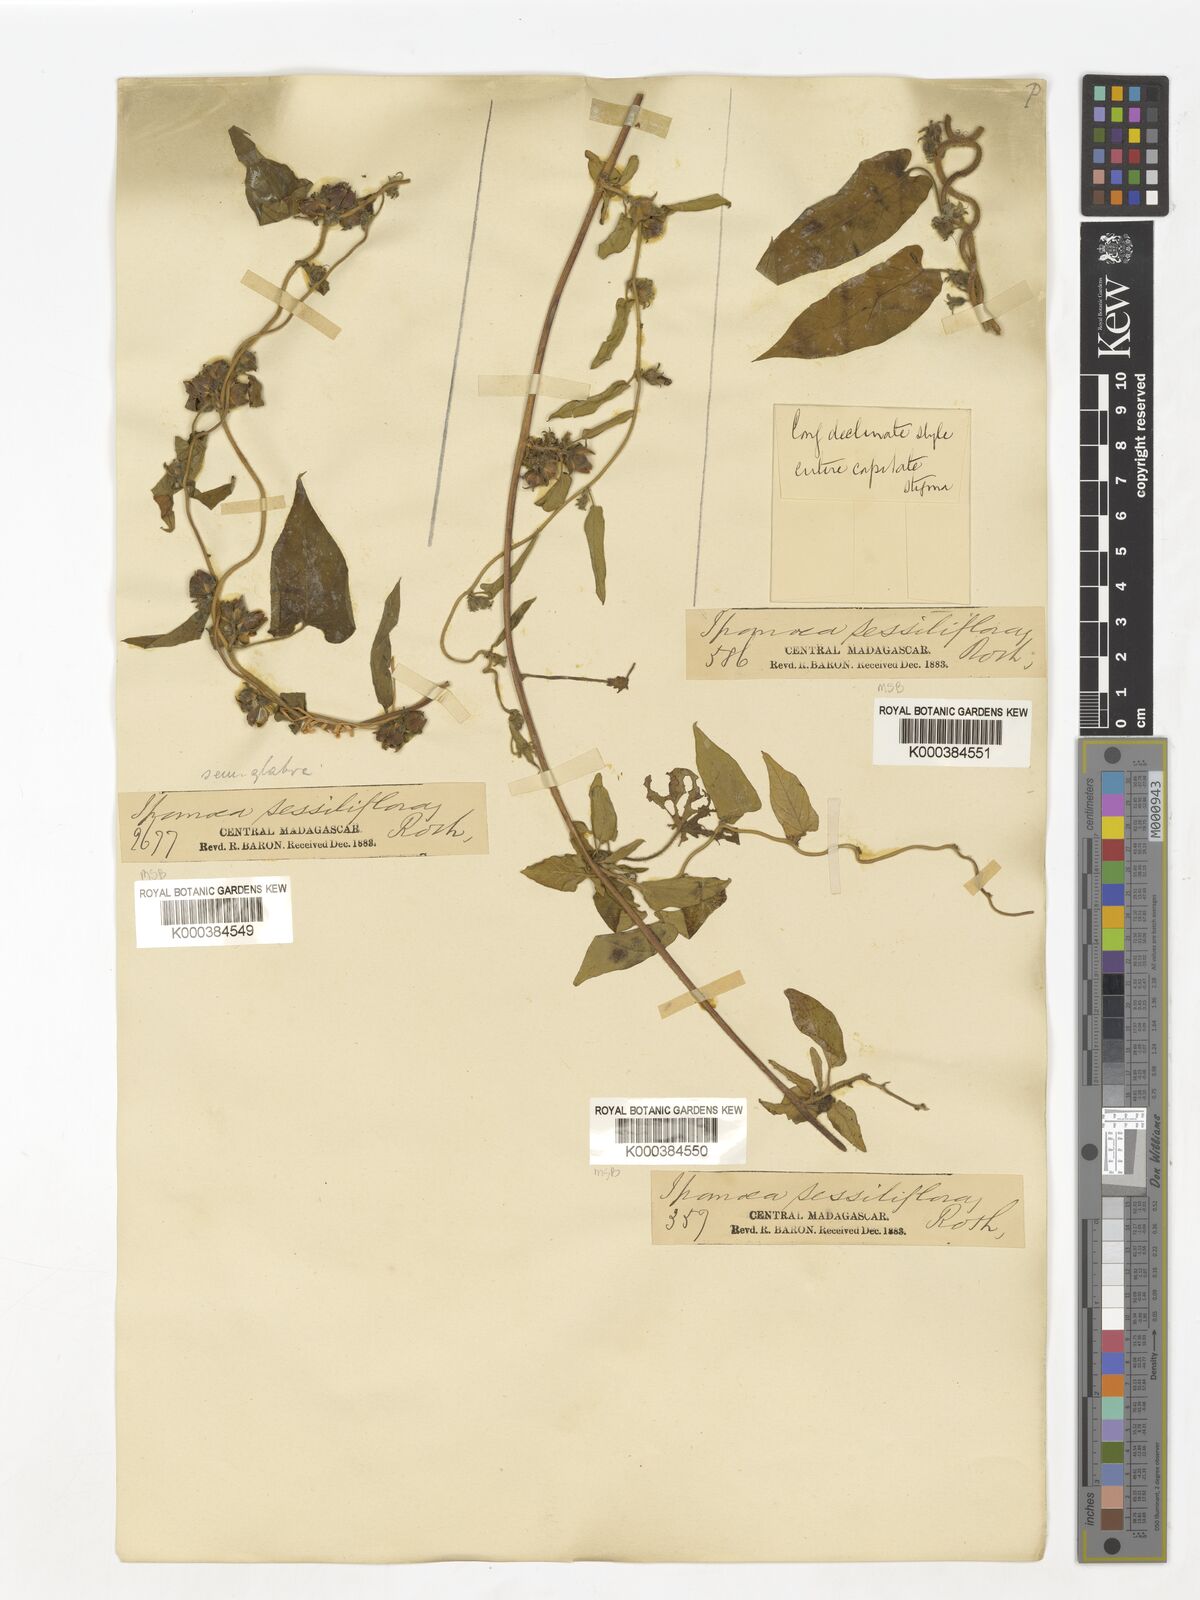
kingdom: Plantae
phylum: Tracheophyta
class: Magnoliopsida
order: Solanales
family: Convolvulaceae
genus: Ipomoea
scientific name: Ipomoea eriocarpa
